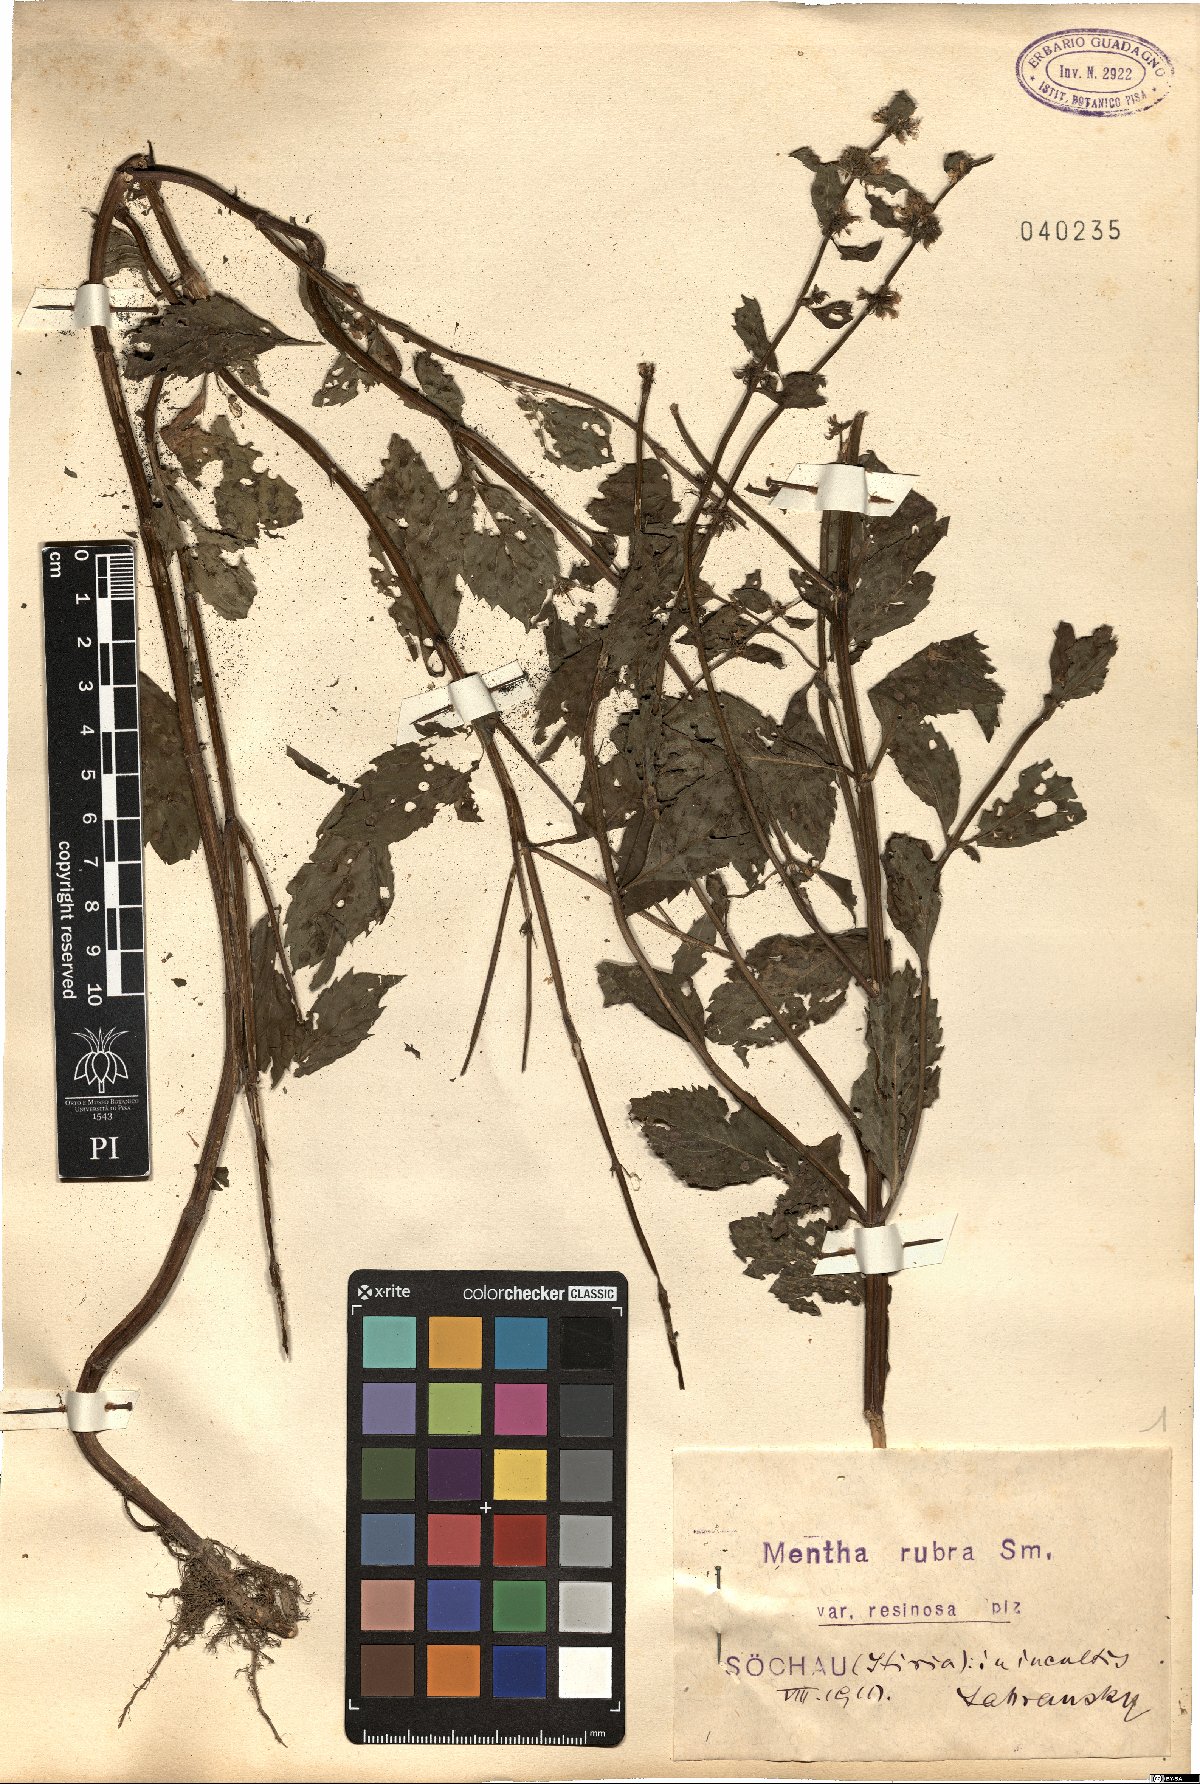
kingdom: Plantae
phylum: Tracheophyta
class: Magnoliopsida
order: Lamiales
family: Lamiaceae
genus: Mentha
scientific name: Mentha wirtgeniana
